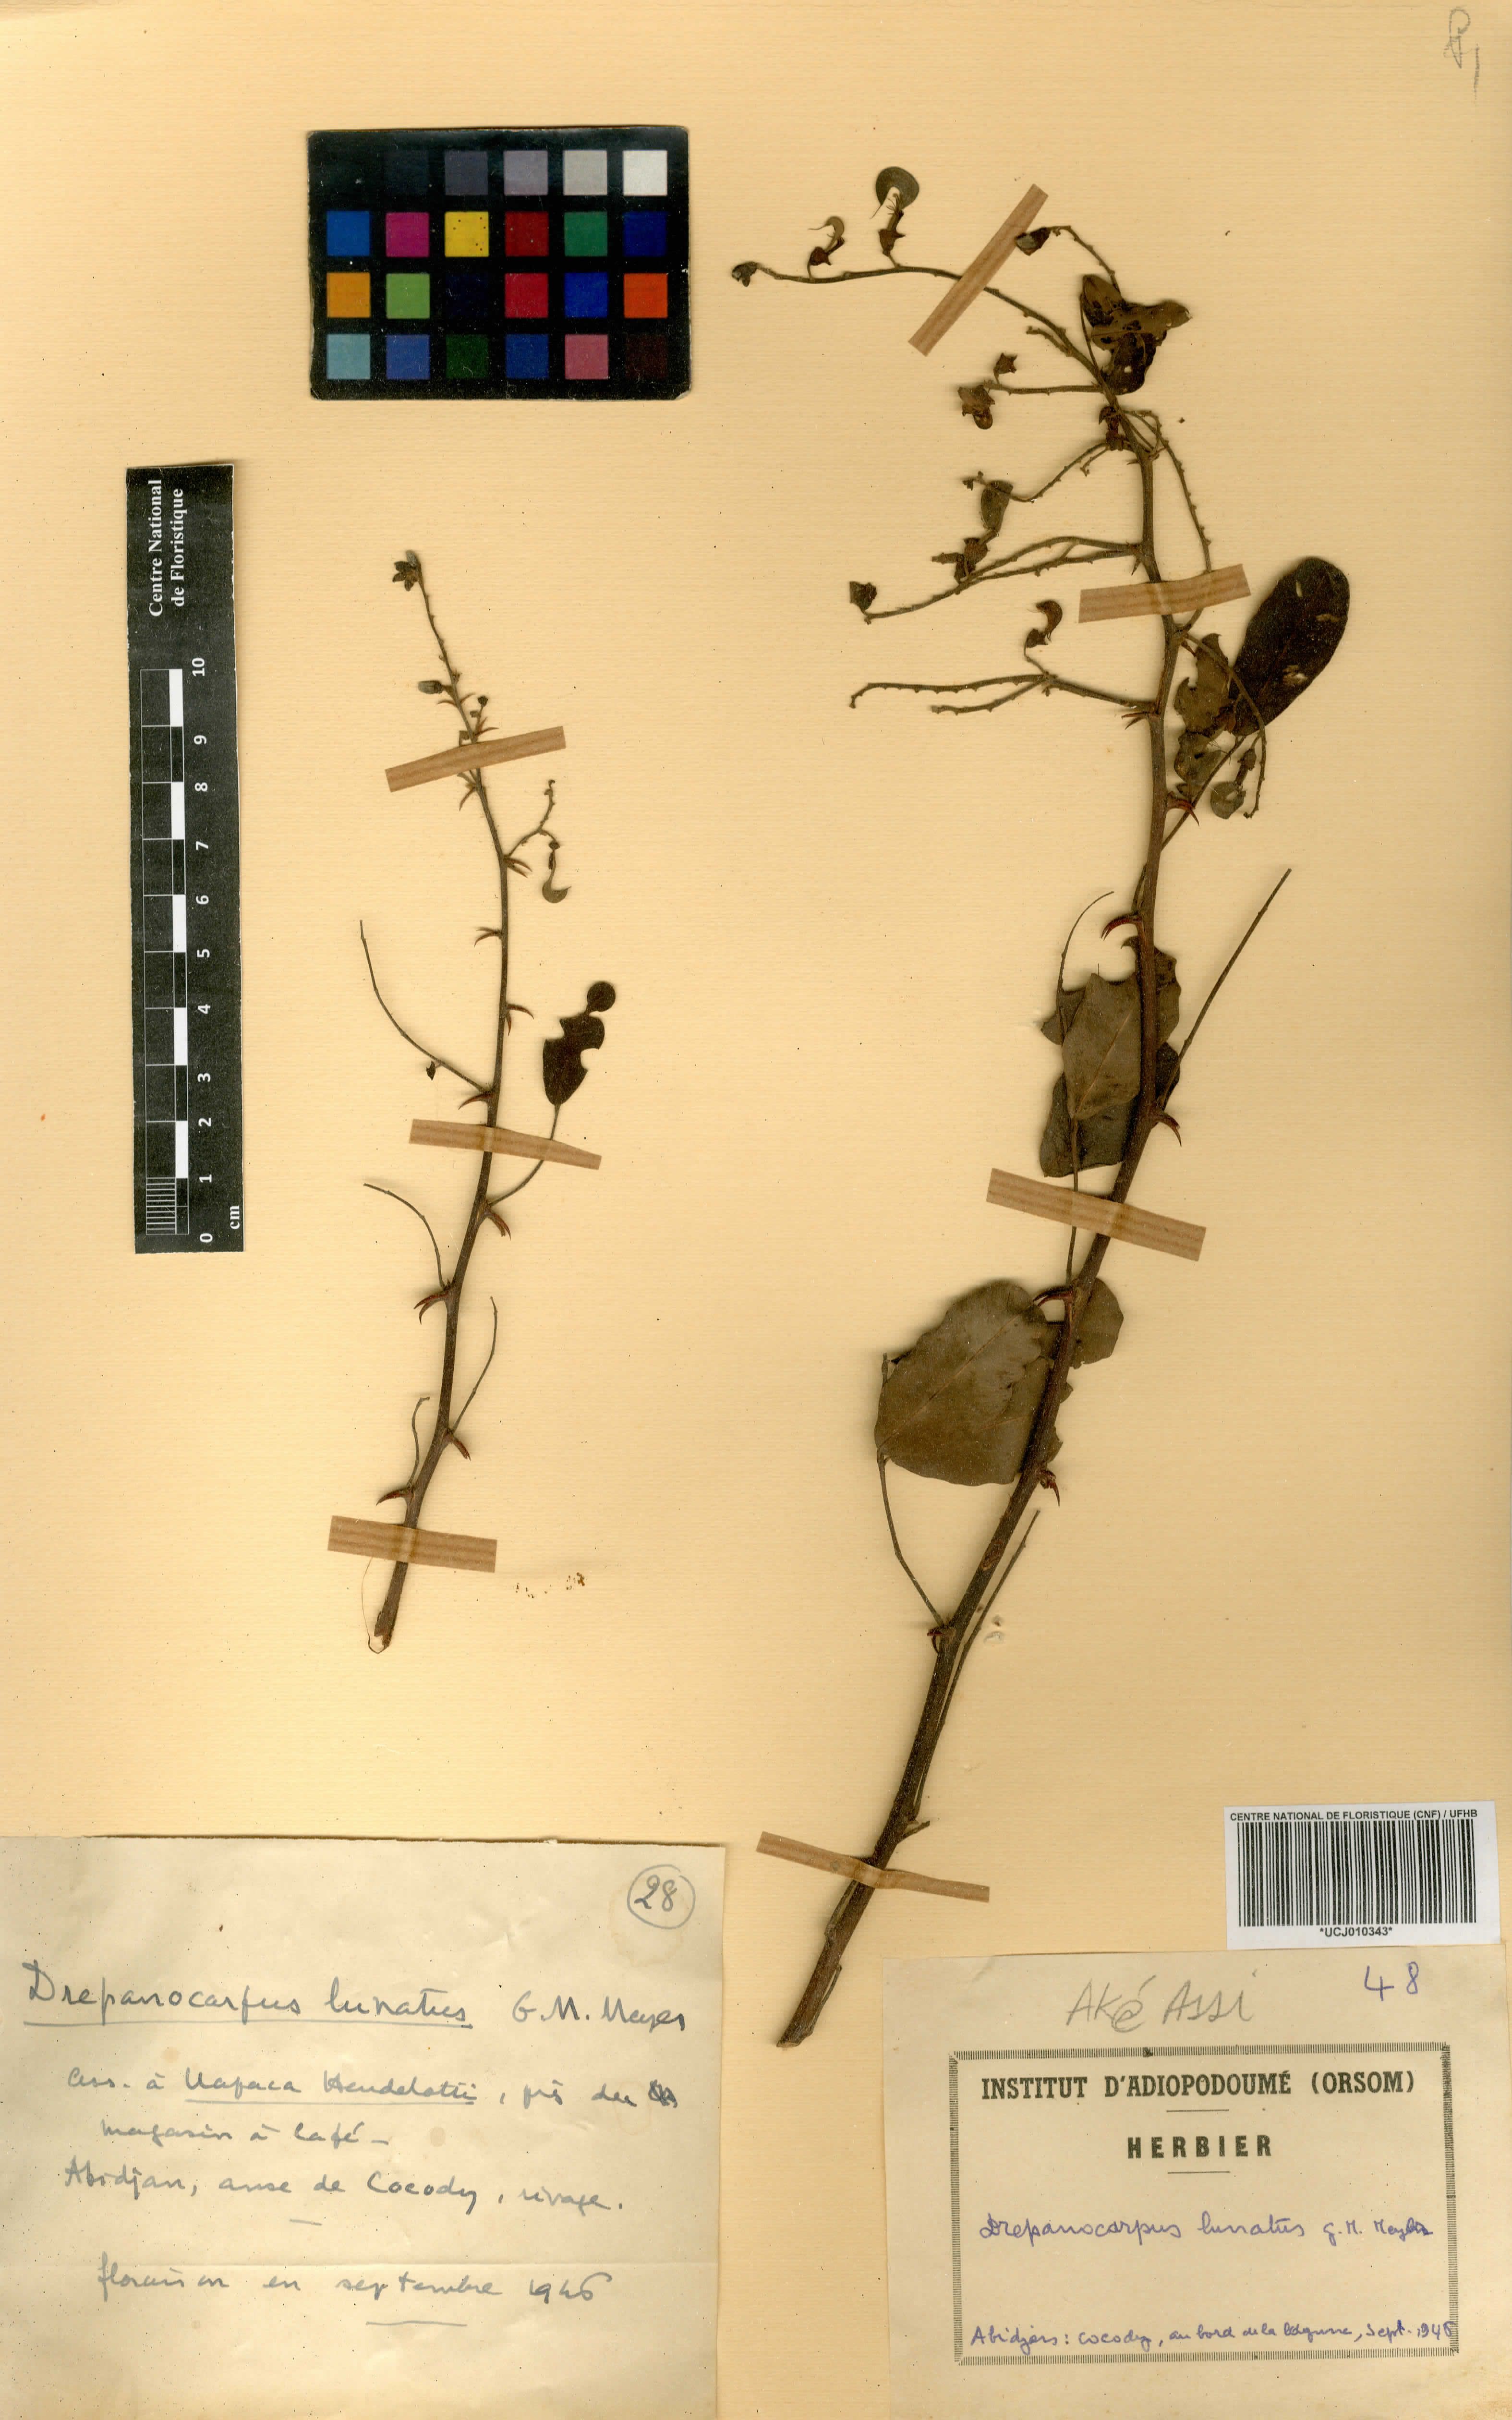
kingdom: Plantae
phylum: Tracheophyta
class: Magnoliopsida
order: Fabales
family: Fabaceae
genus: Machaerium
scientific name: Machaerium lunatum
